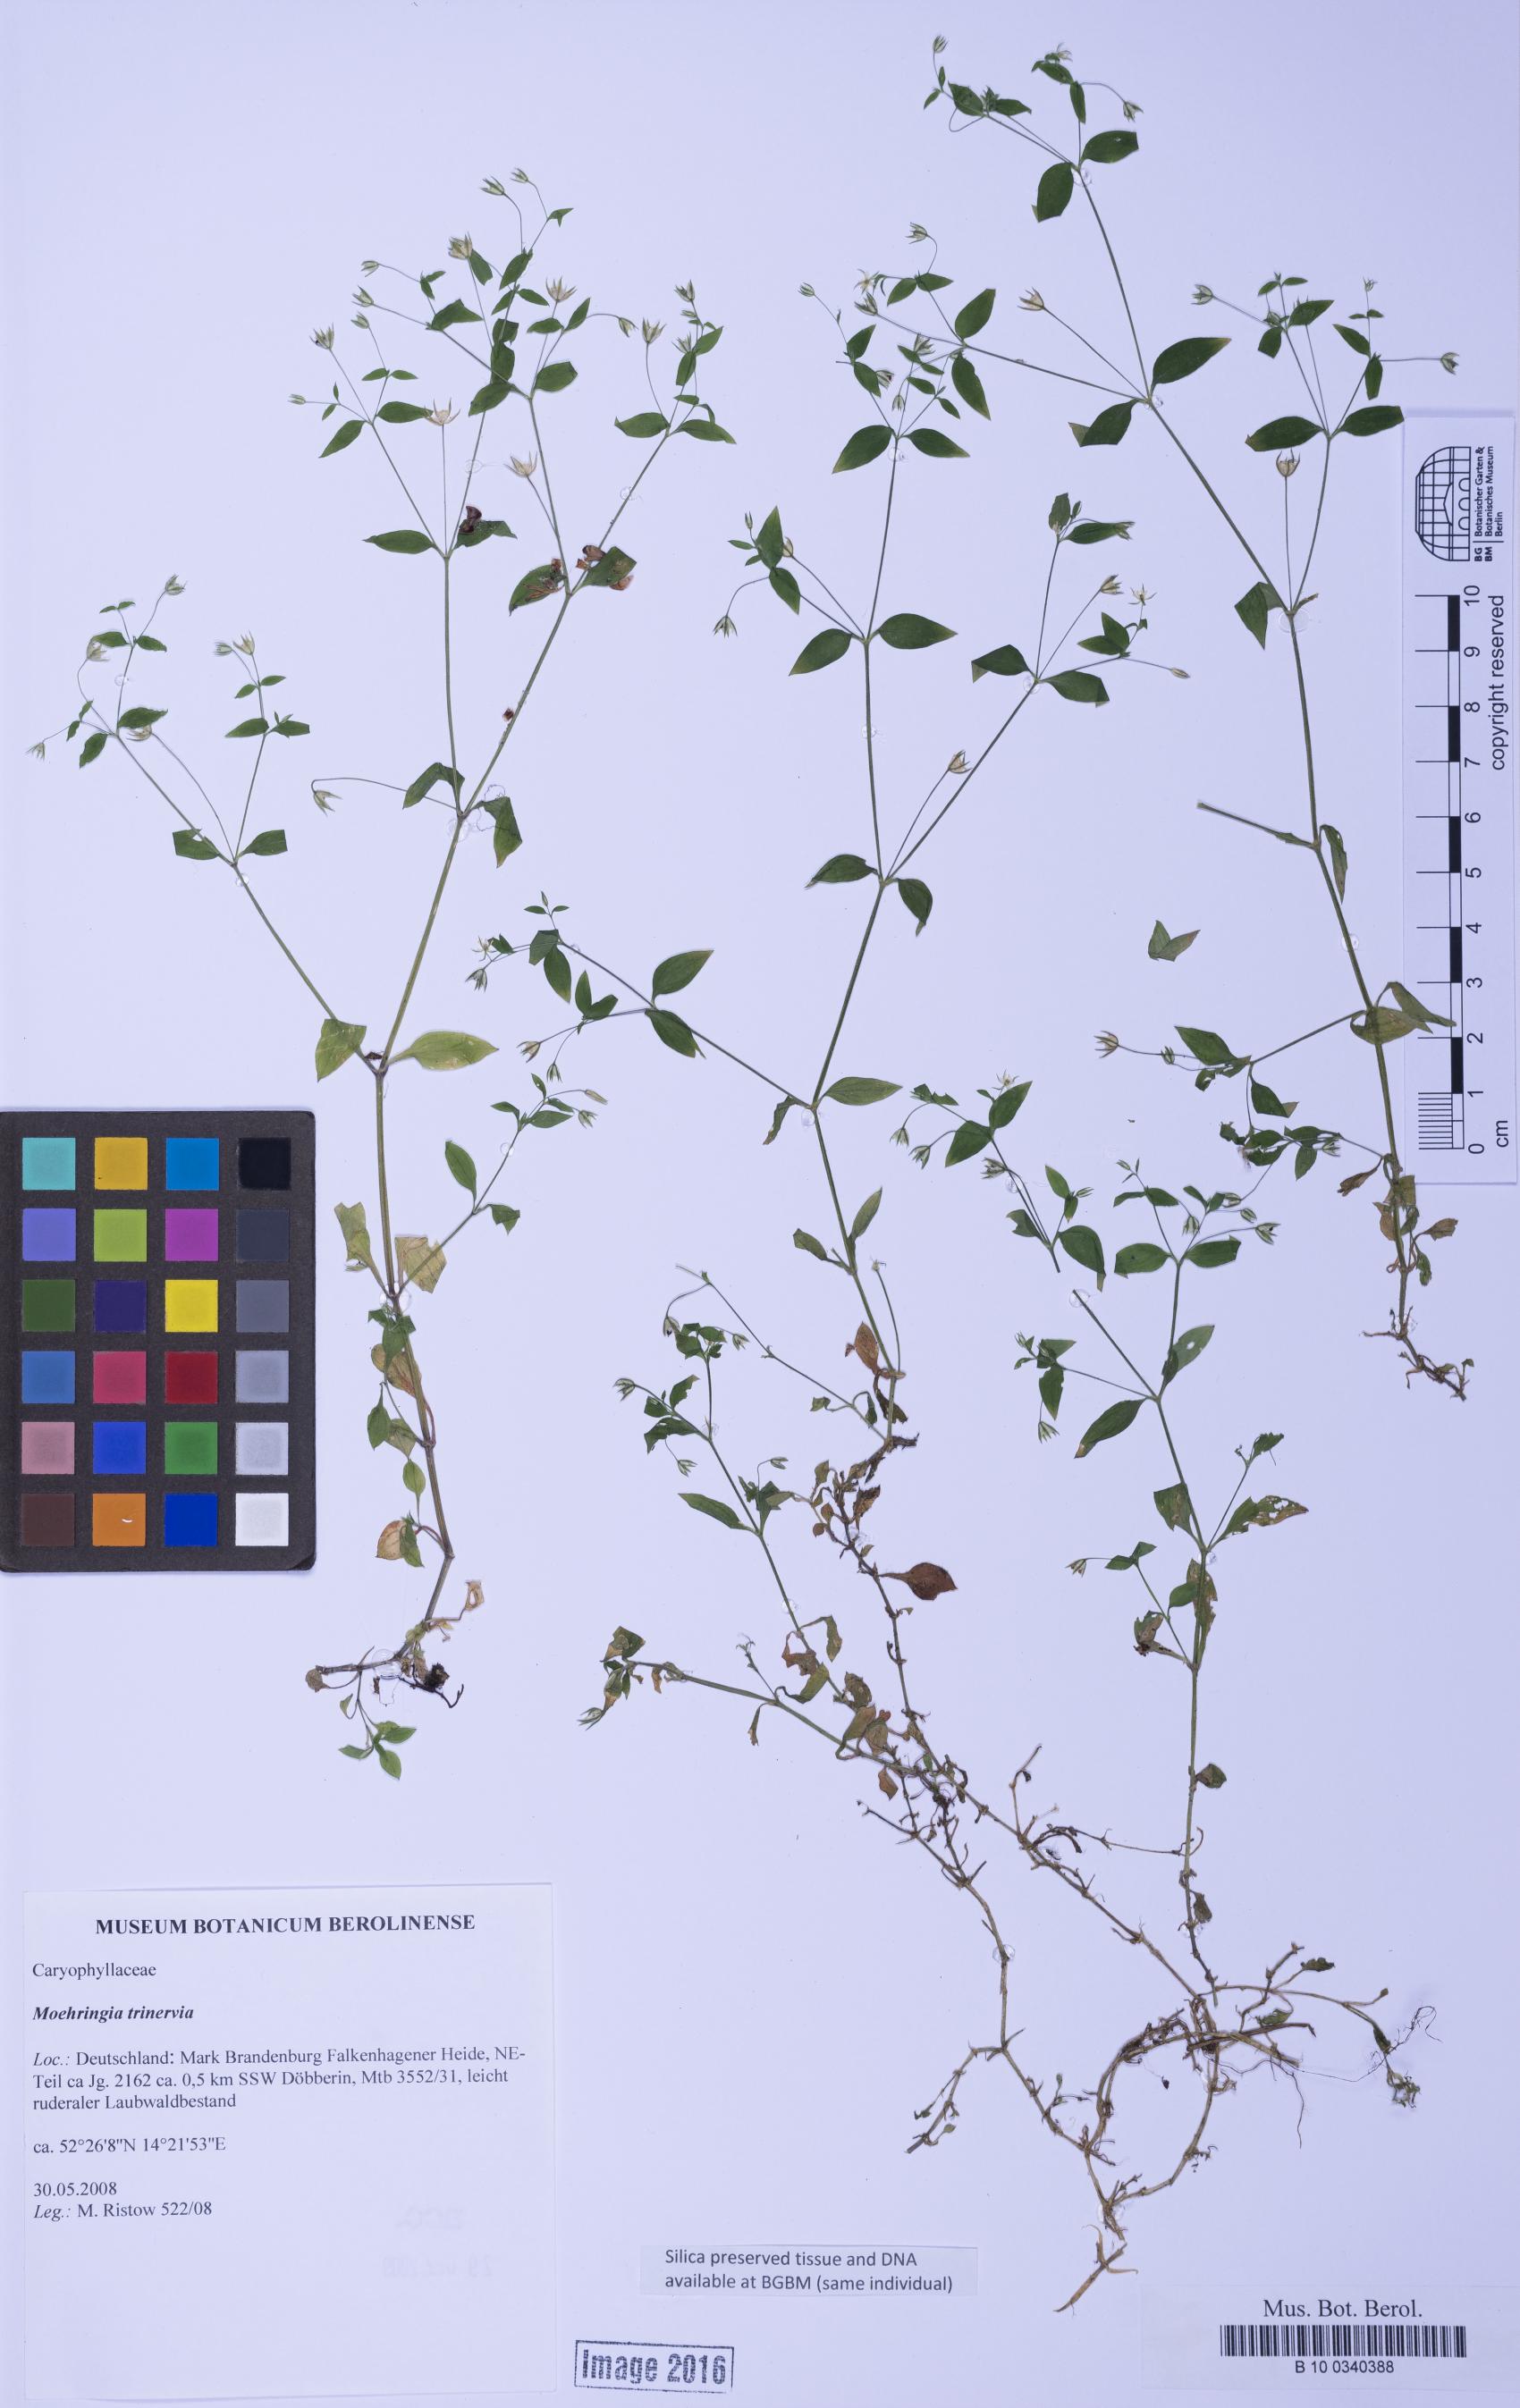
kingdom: Plantae
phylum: Tracheophyta
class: Magnoliopsida
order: Caryophyllales
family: Caryophyllaceae
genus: Moehringia
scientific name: Moehringia trinervia
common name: Three-nerved sandwort
